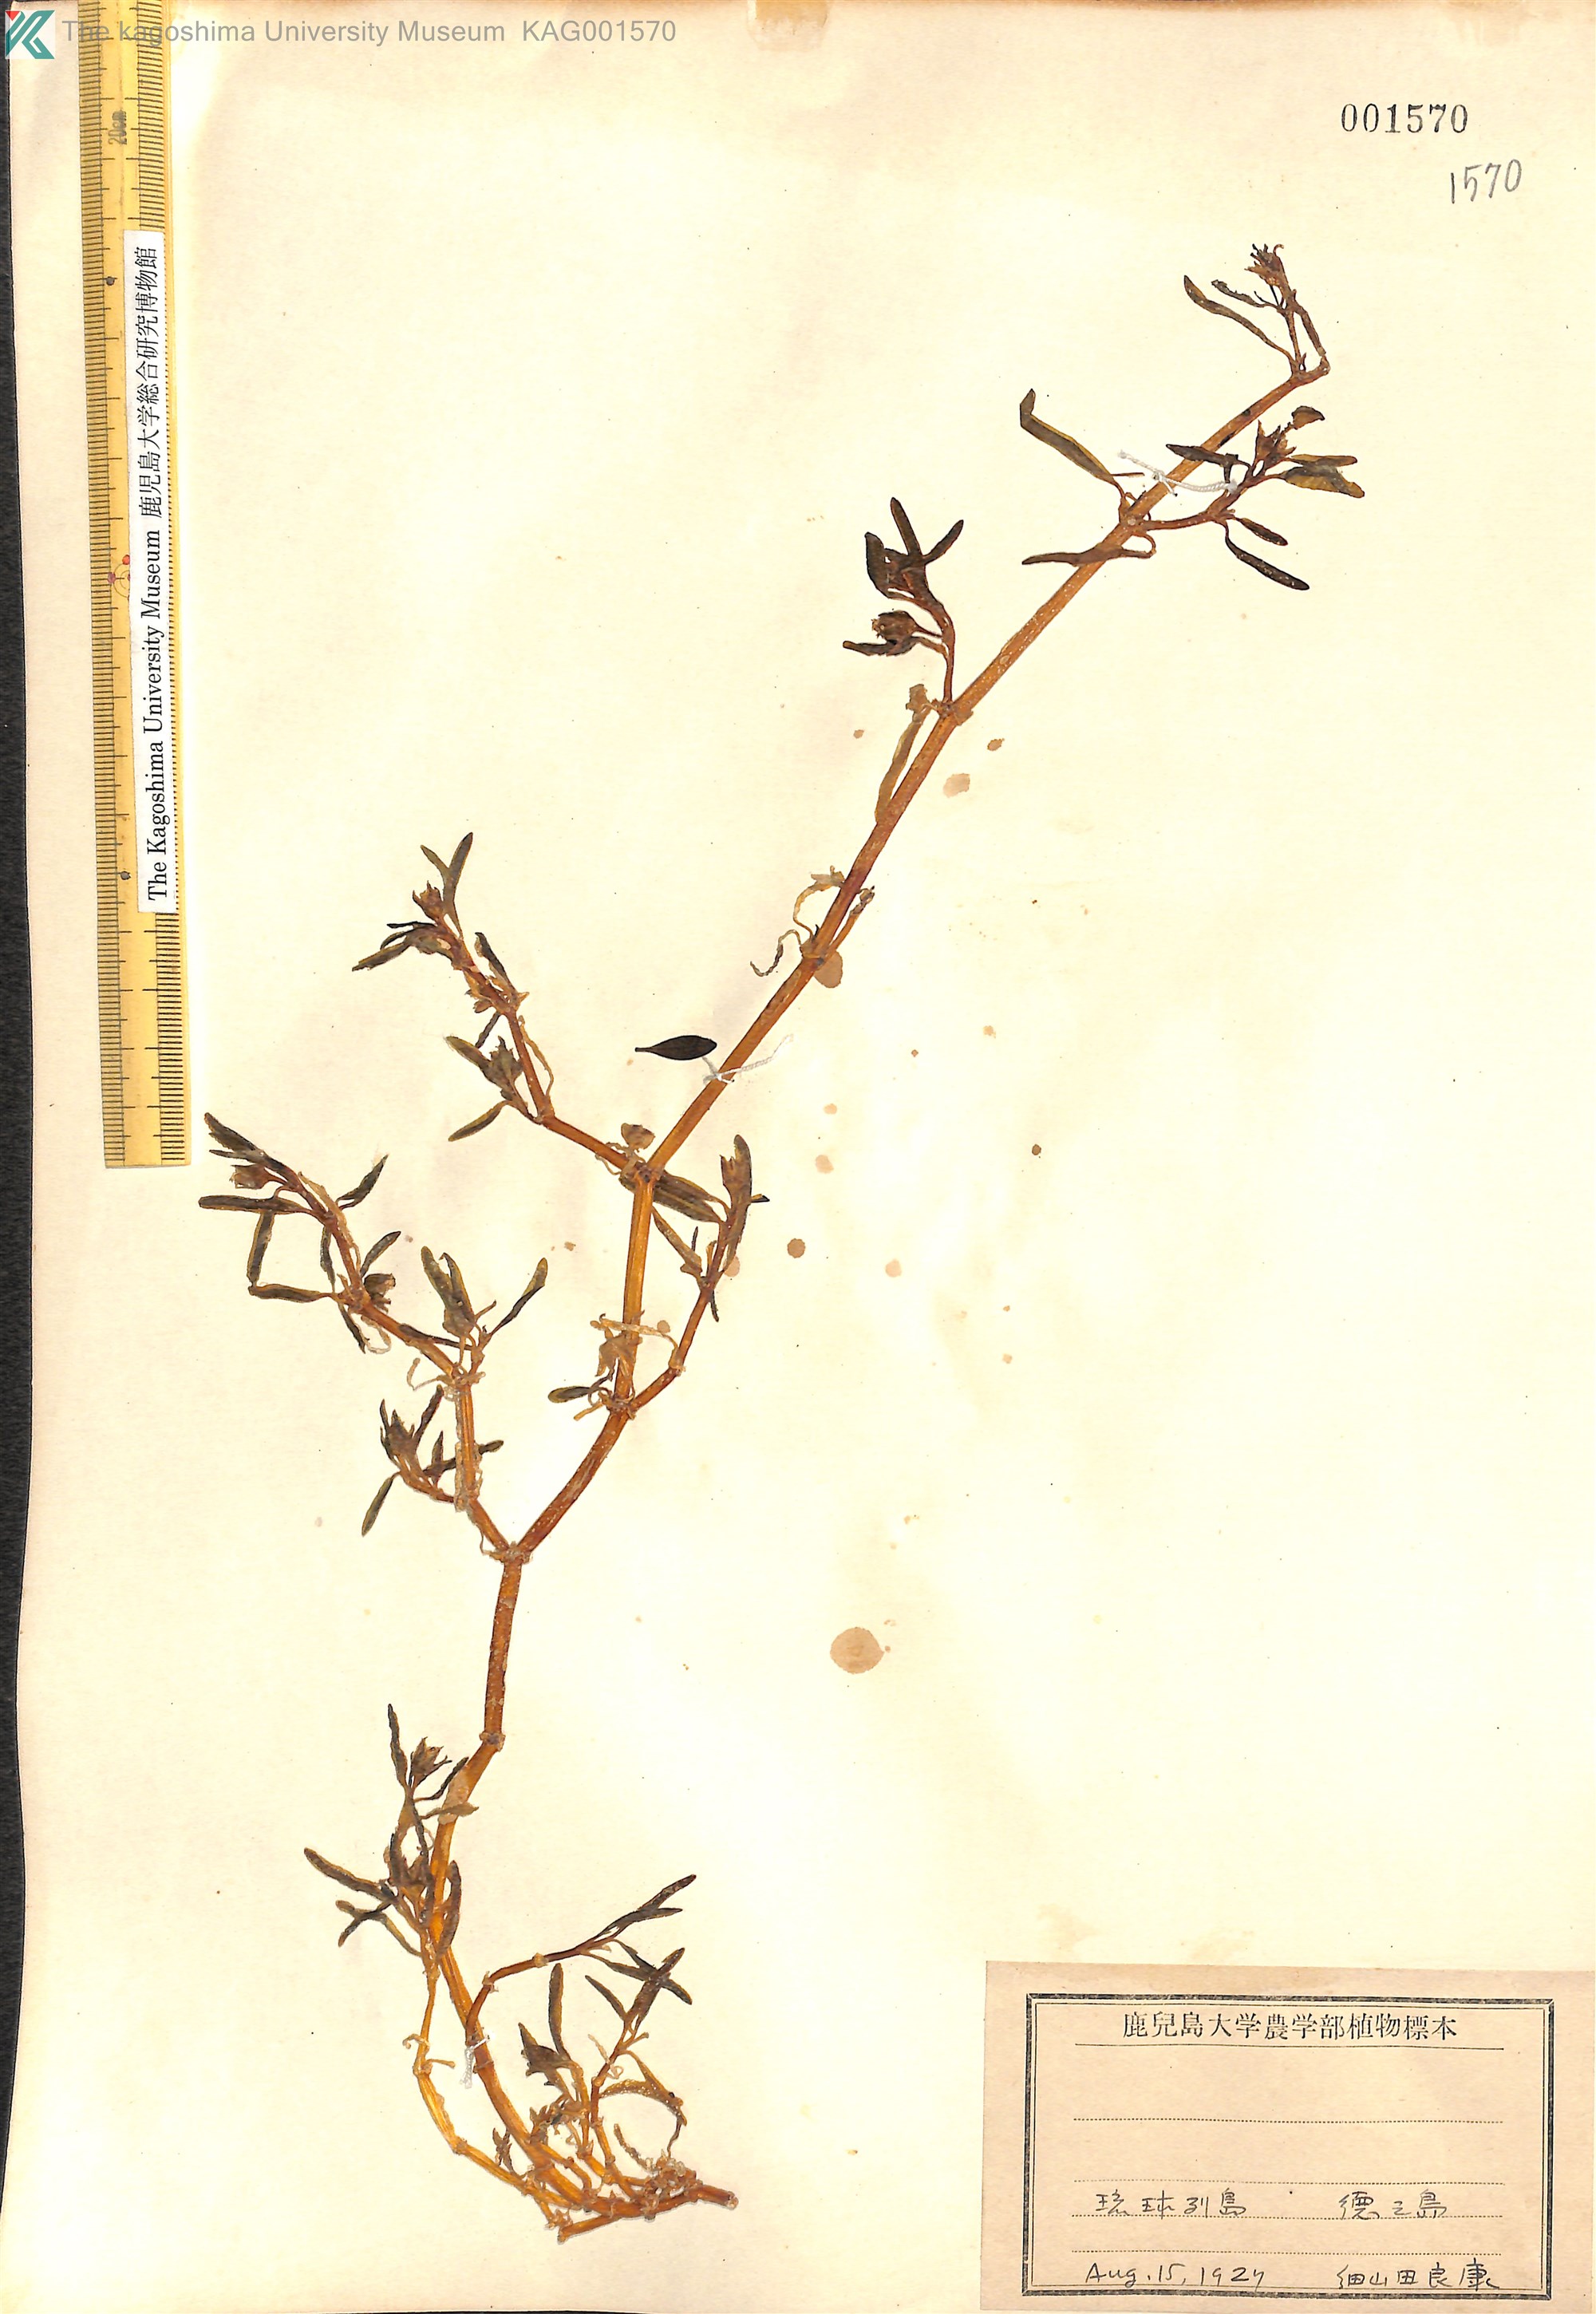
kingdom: Plantae
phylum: Tracheophyta
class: Magnoliopsida
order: Caryophyllales
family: Aizoaceae
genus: Sesuvium
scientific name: Sesuvium portulacastrum
